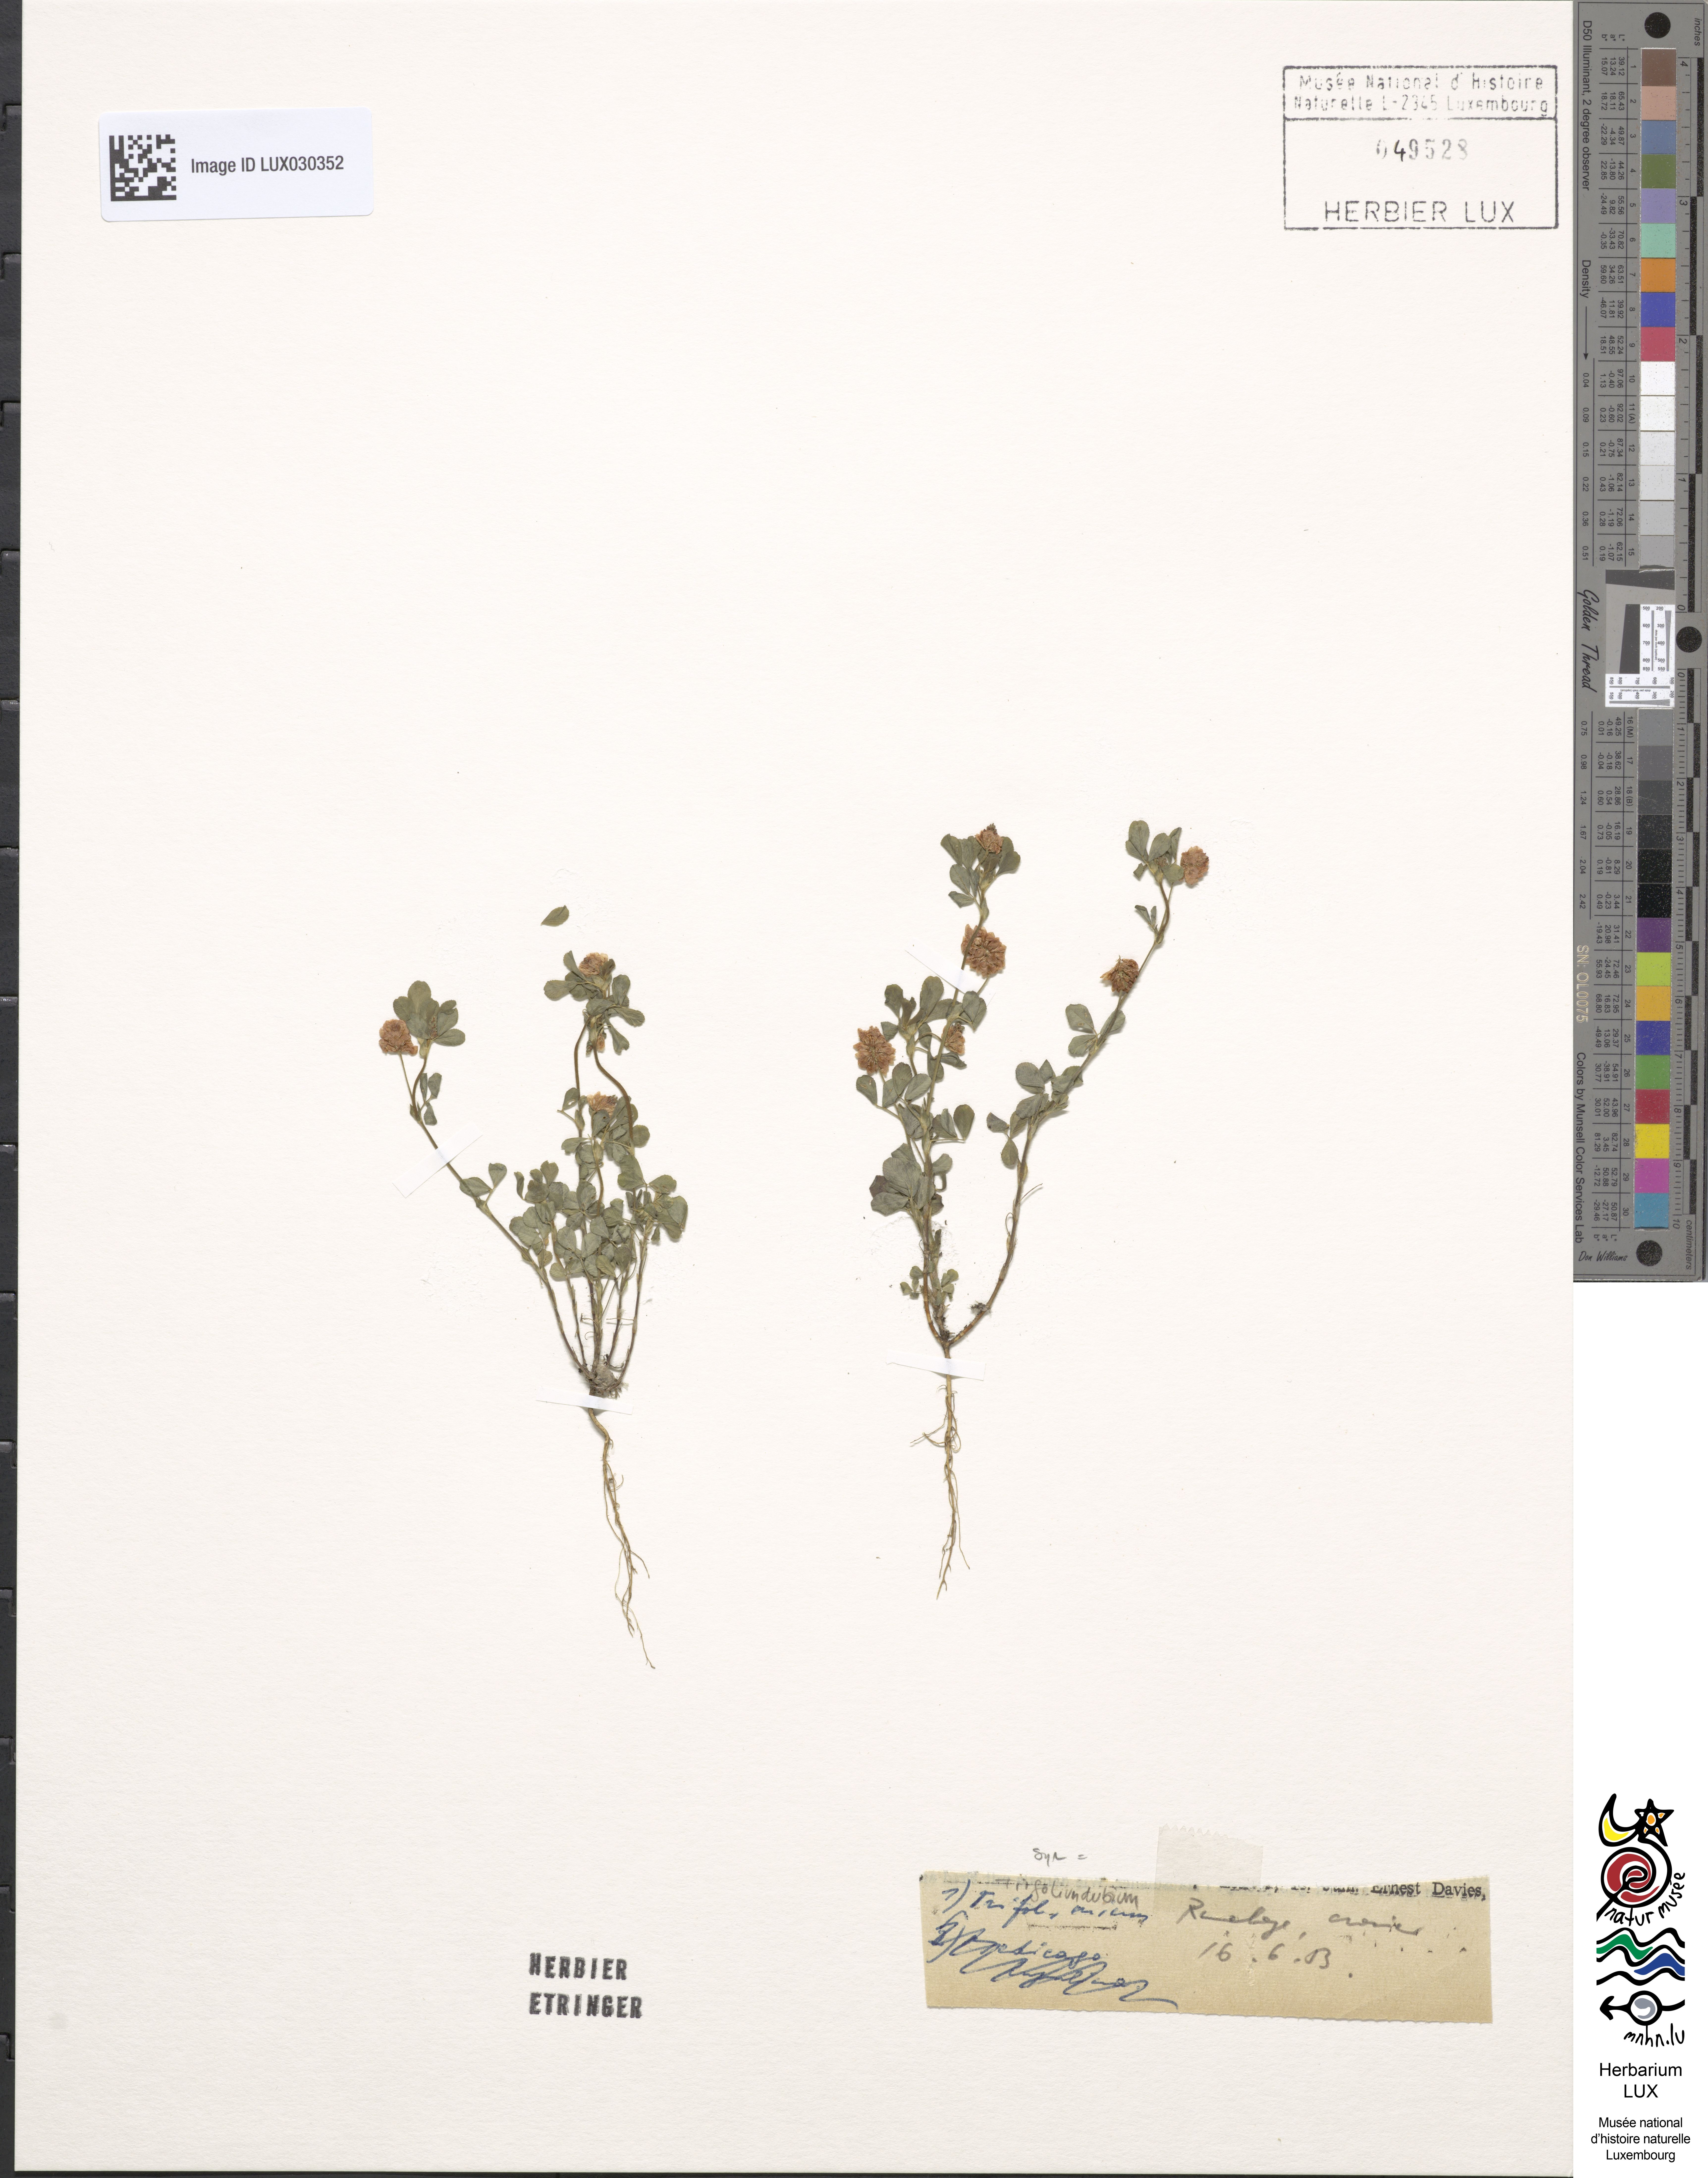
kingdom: Plantae
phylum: Tracheophyta
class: Magnoliopsida
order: Fabales
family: Fabaceae
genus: Trifolium
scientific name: Trifolium dubium
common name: Suckling clover
